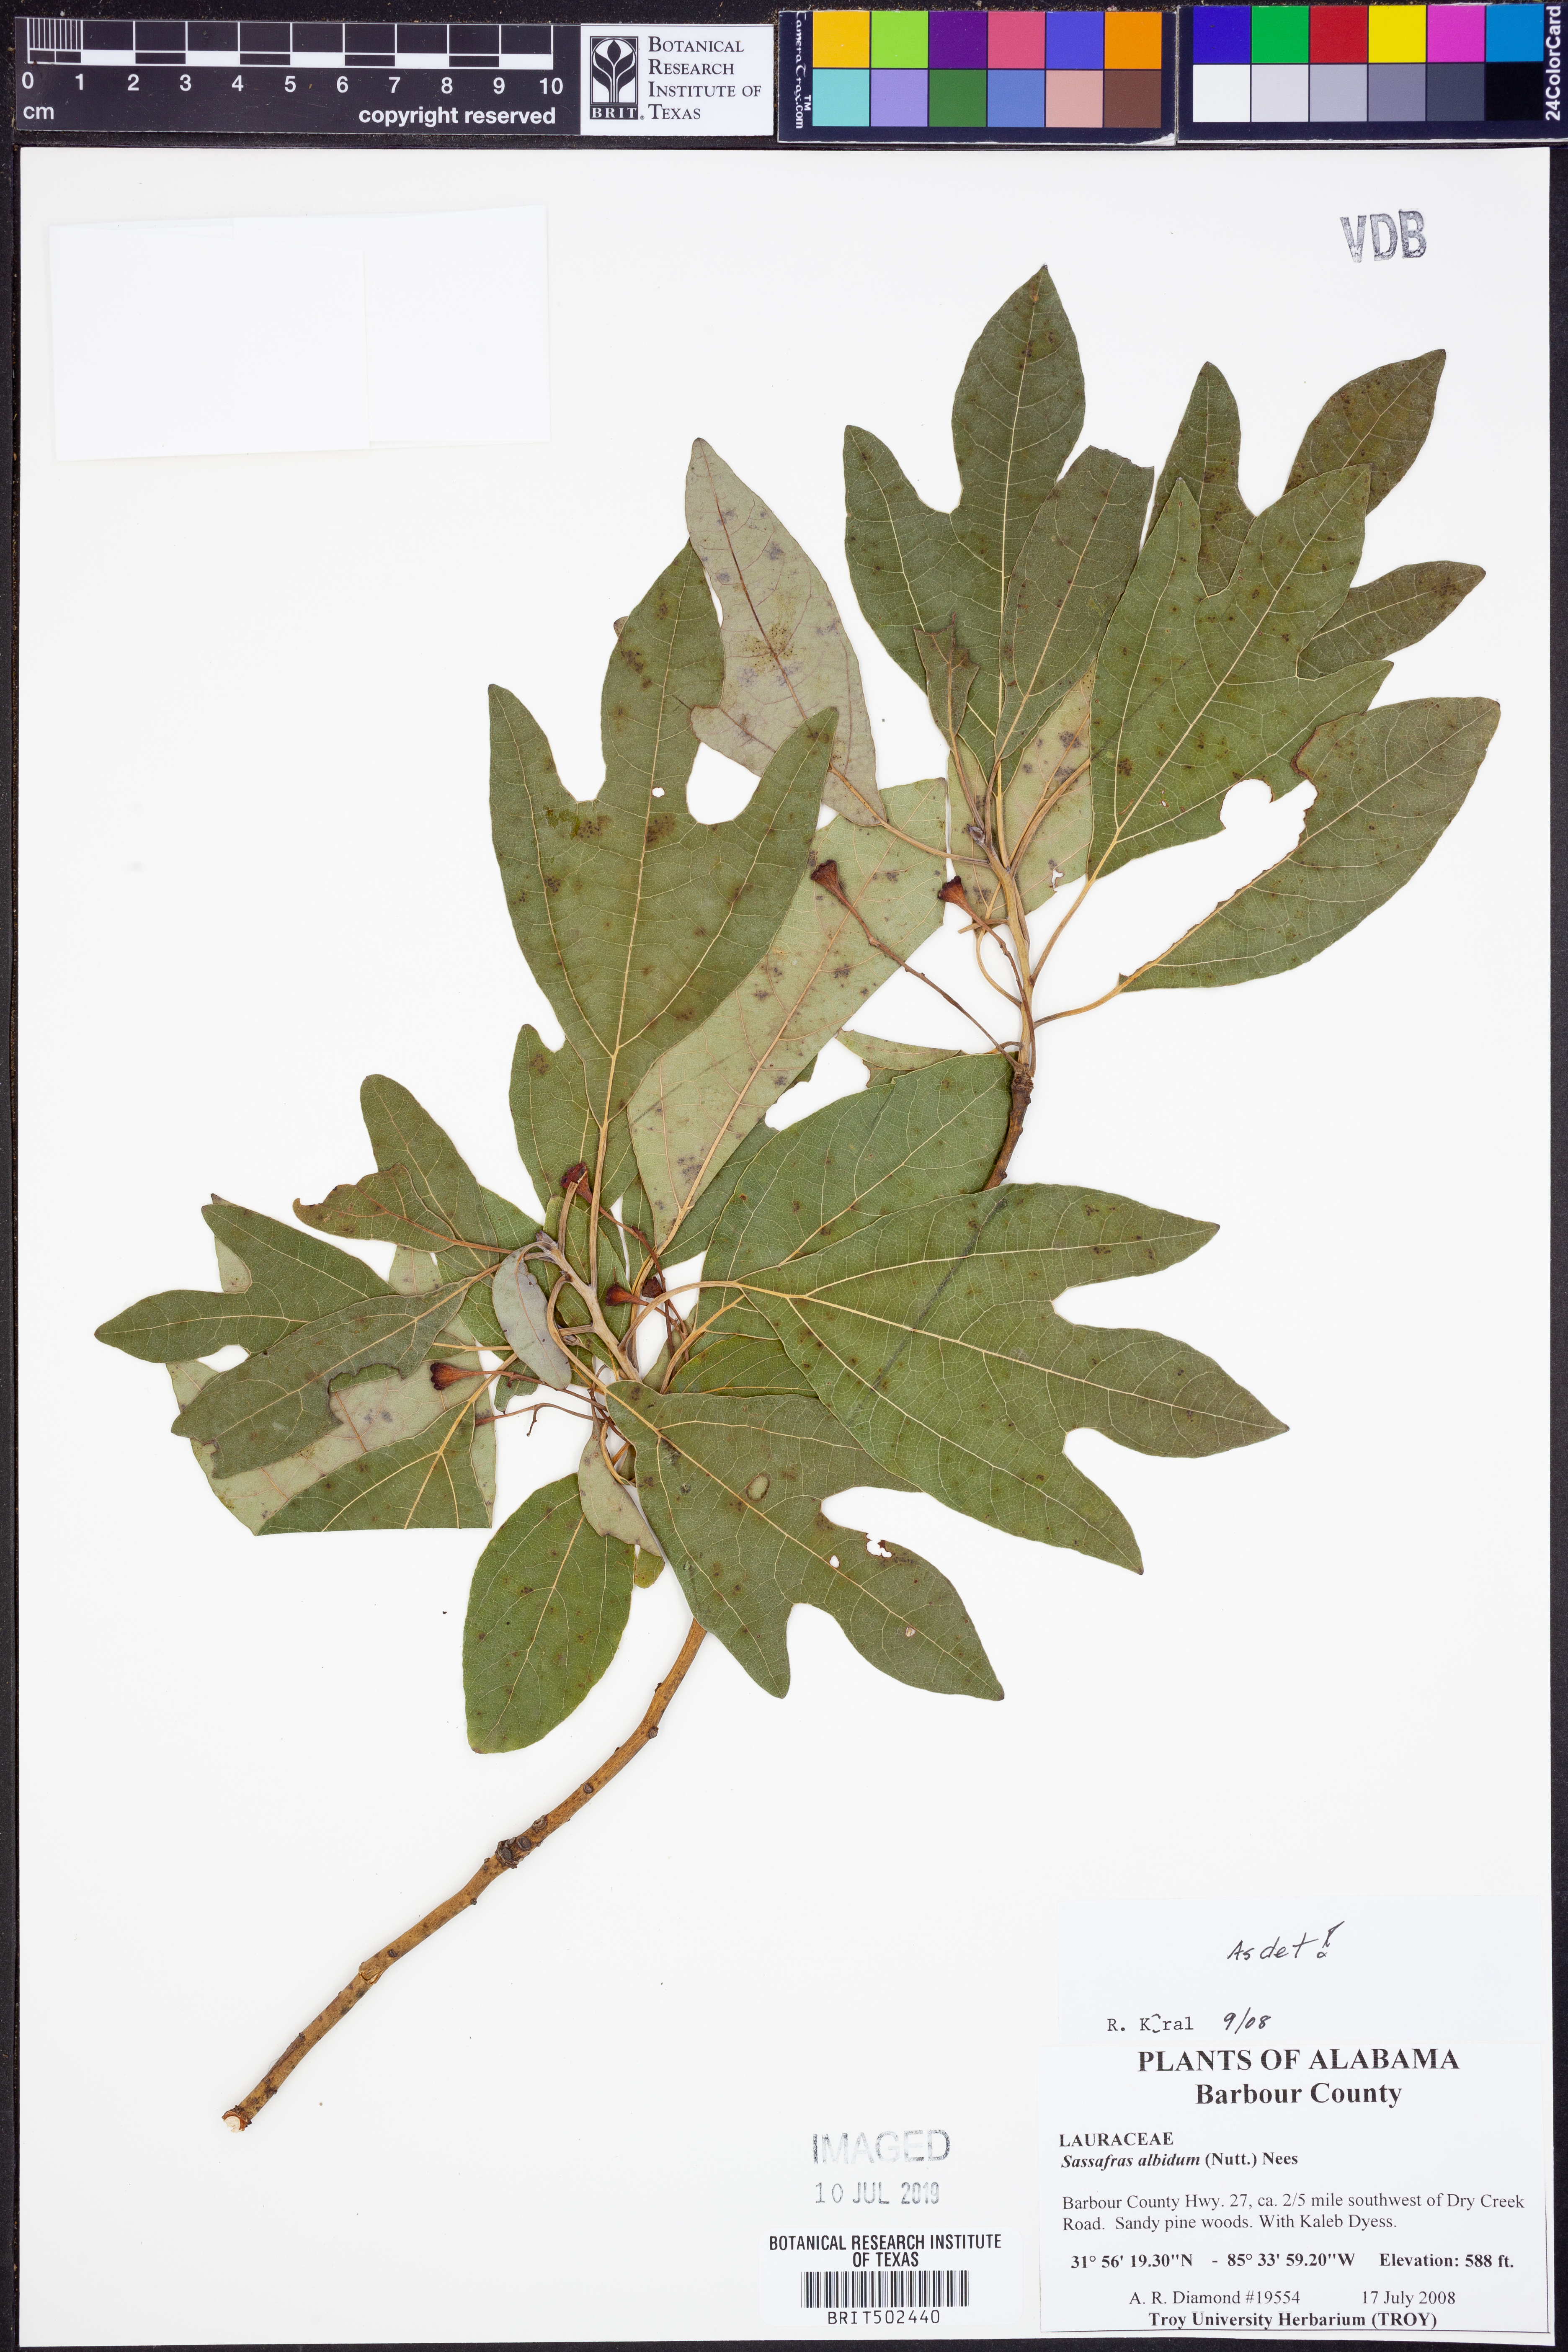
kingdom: Plantae
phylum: Tracheophyta
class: Magnoliopsida
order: Laurales
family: Lauraceae
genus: Sassafras
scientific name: Sassafras albidum
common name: Sassafras
